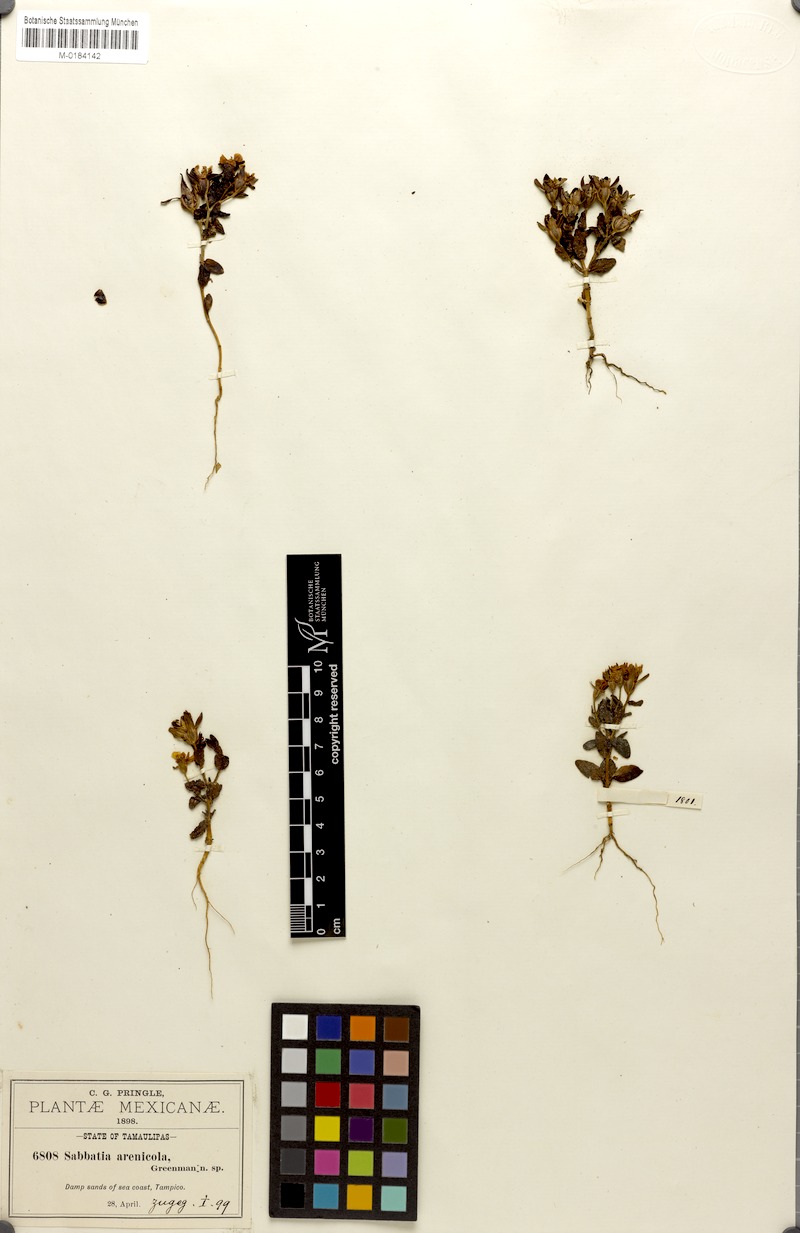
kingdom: Plantae
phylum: Tracheophyta
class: Magnoliopsida
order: Gentianales
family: Gentianaceae
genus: Sabatia
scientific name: Sabatia arenicola
